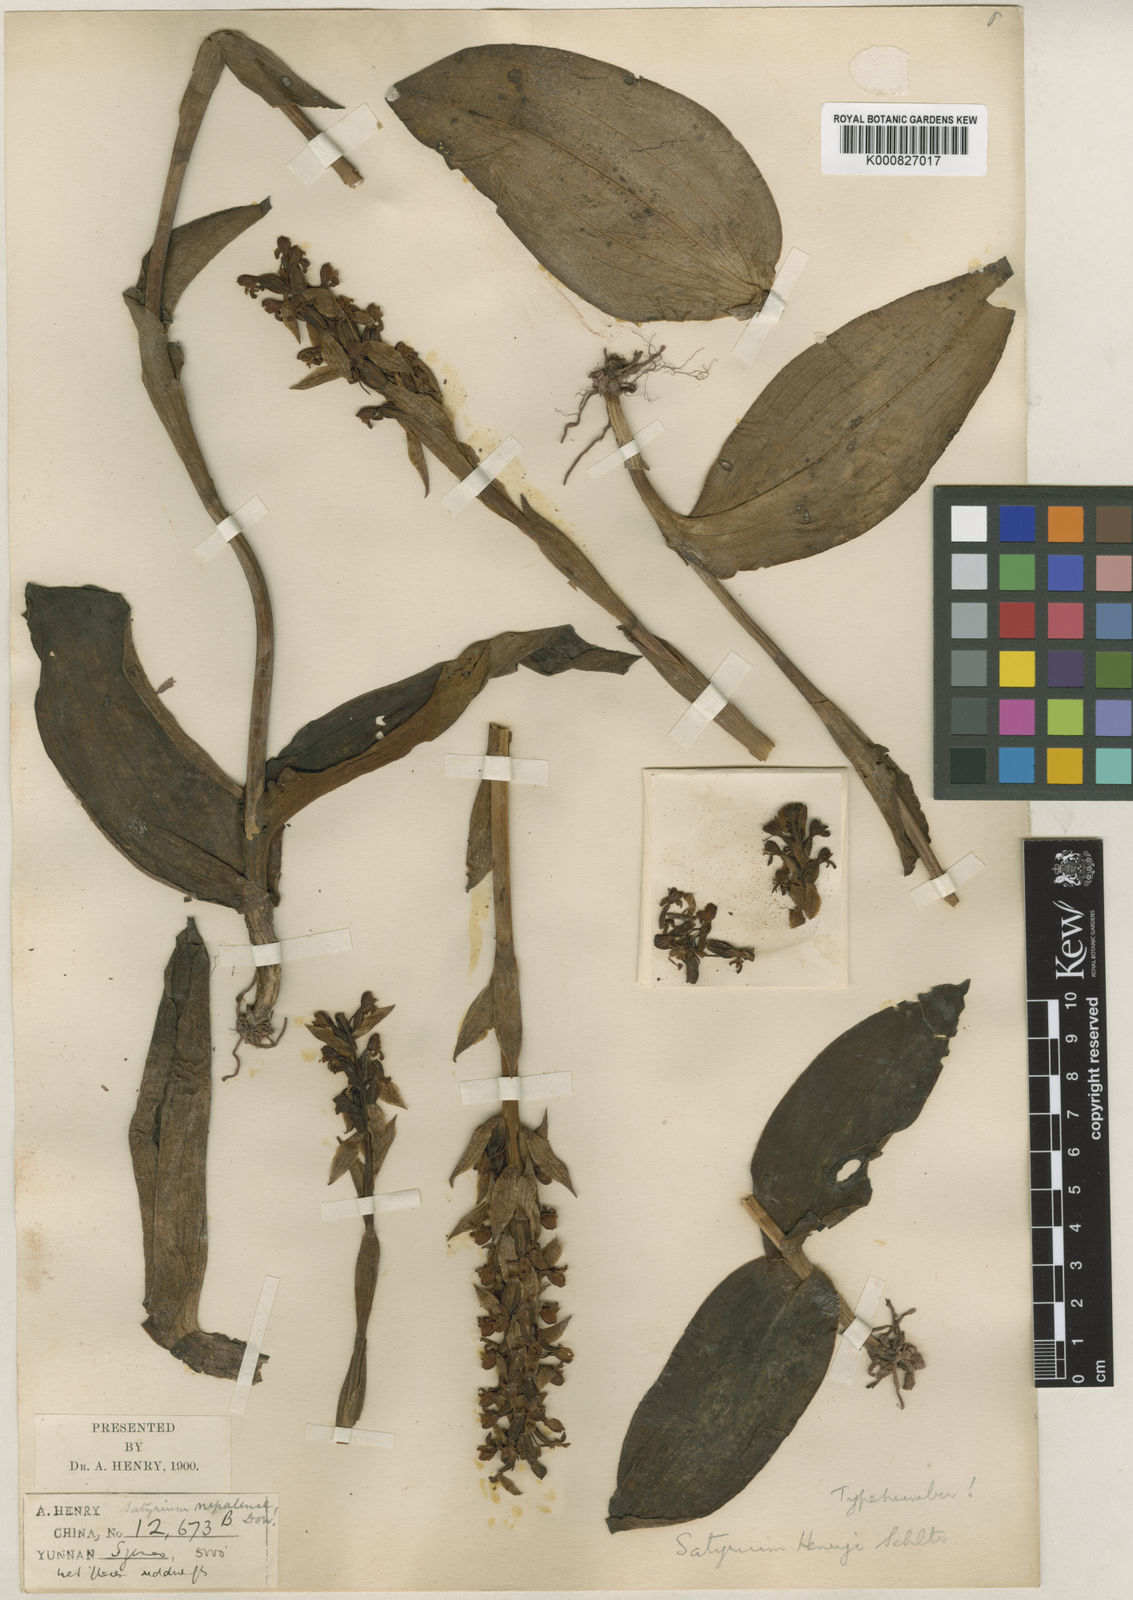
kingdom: Plantae
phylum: Tracheophyta
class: Liliopsida
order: Asparagales
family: Orchidaceae
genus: Satyrium
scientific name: Satyrium nepalense
